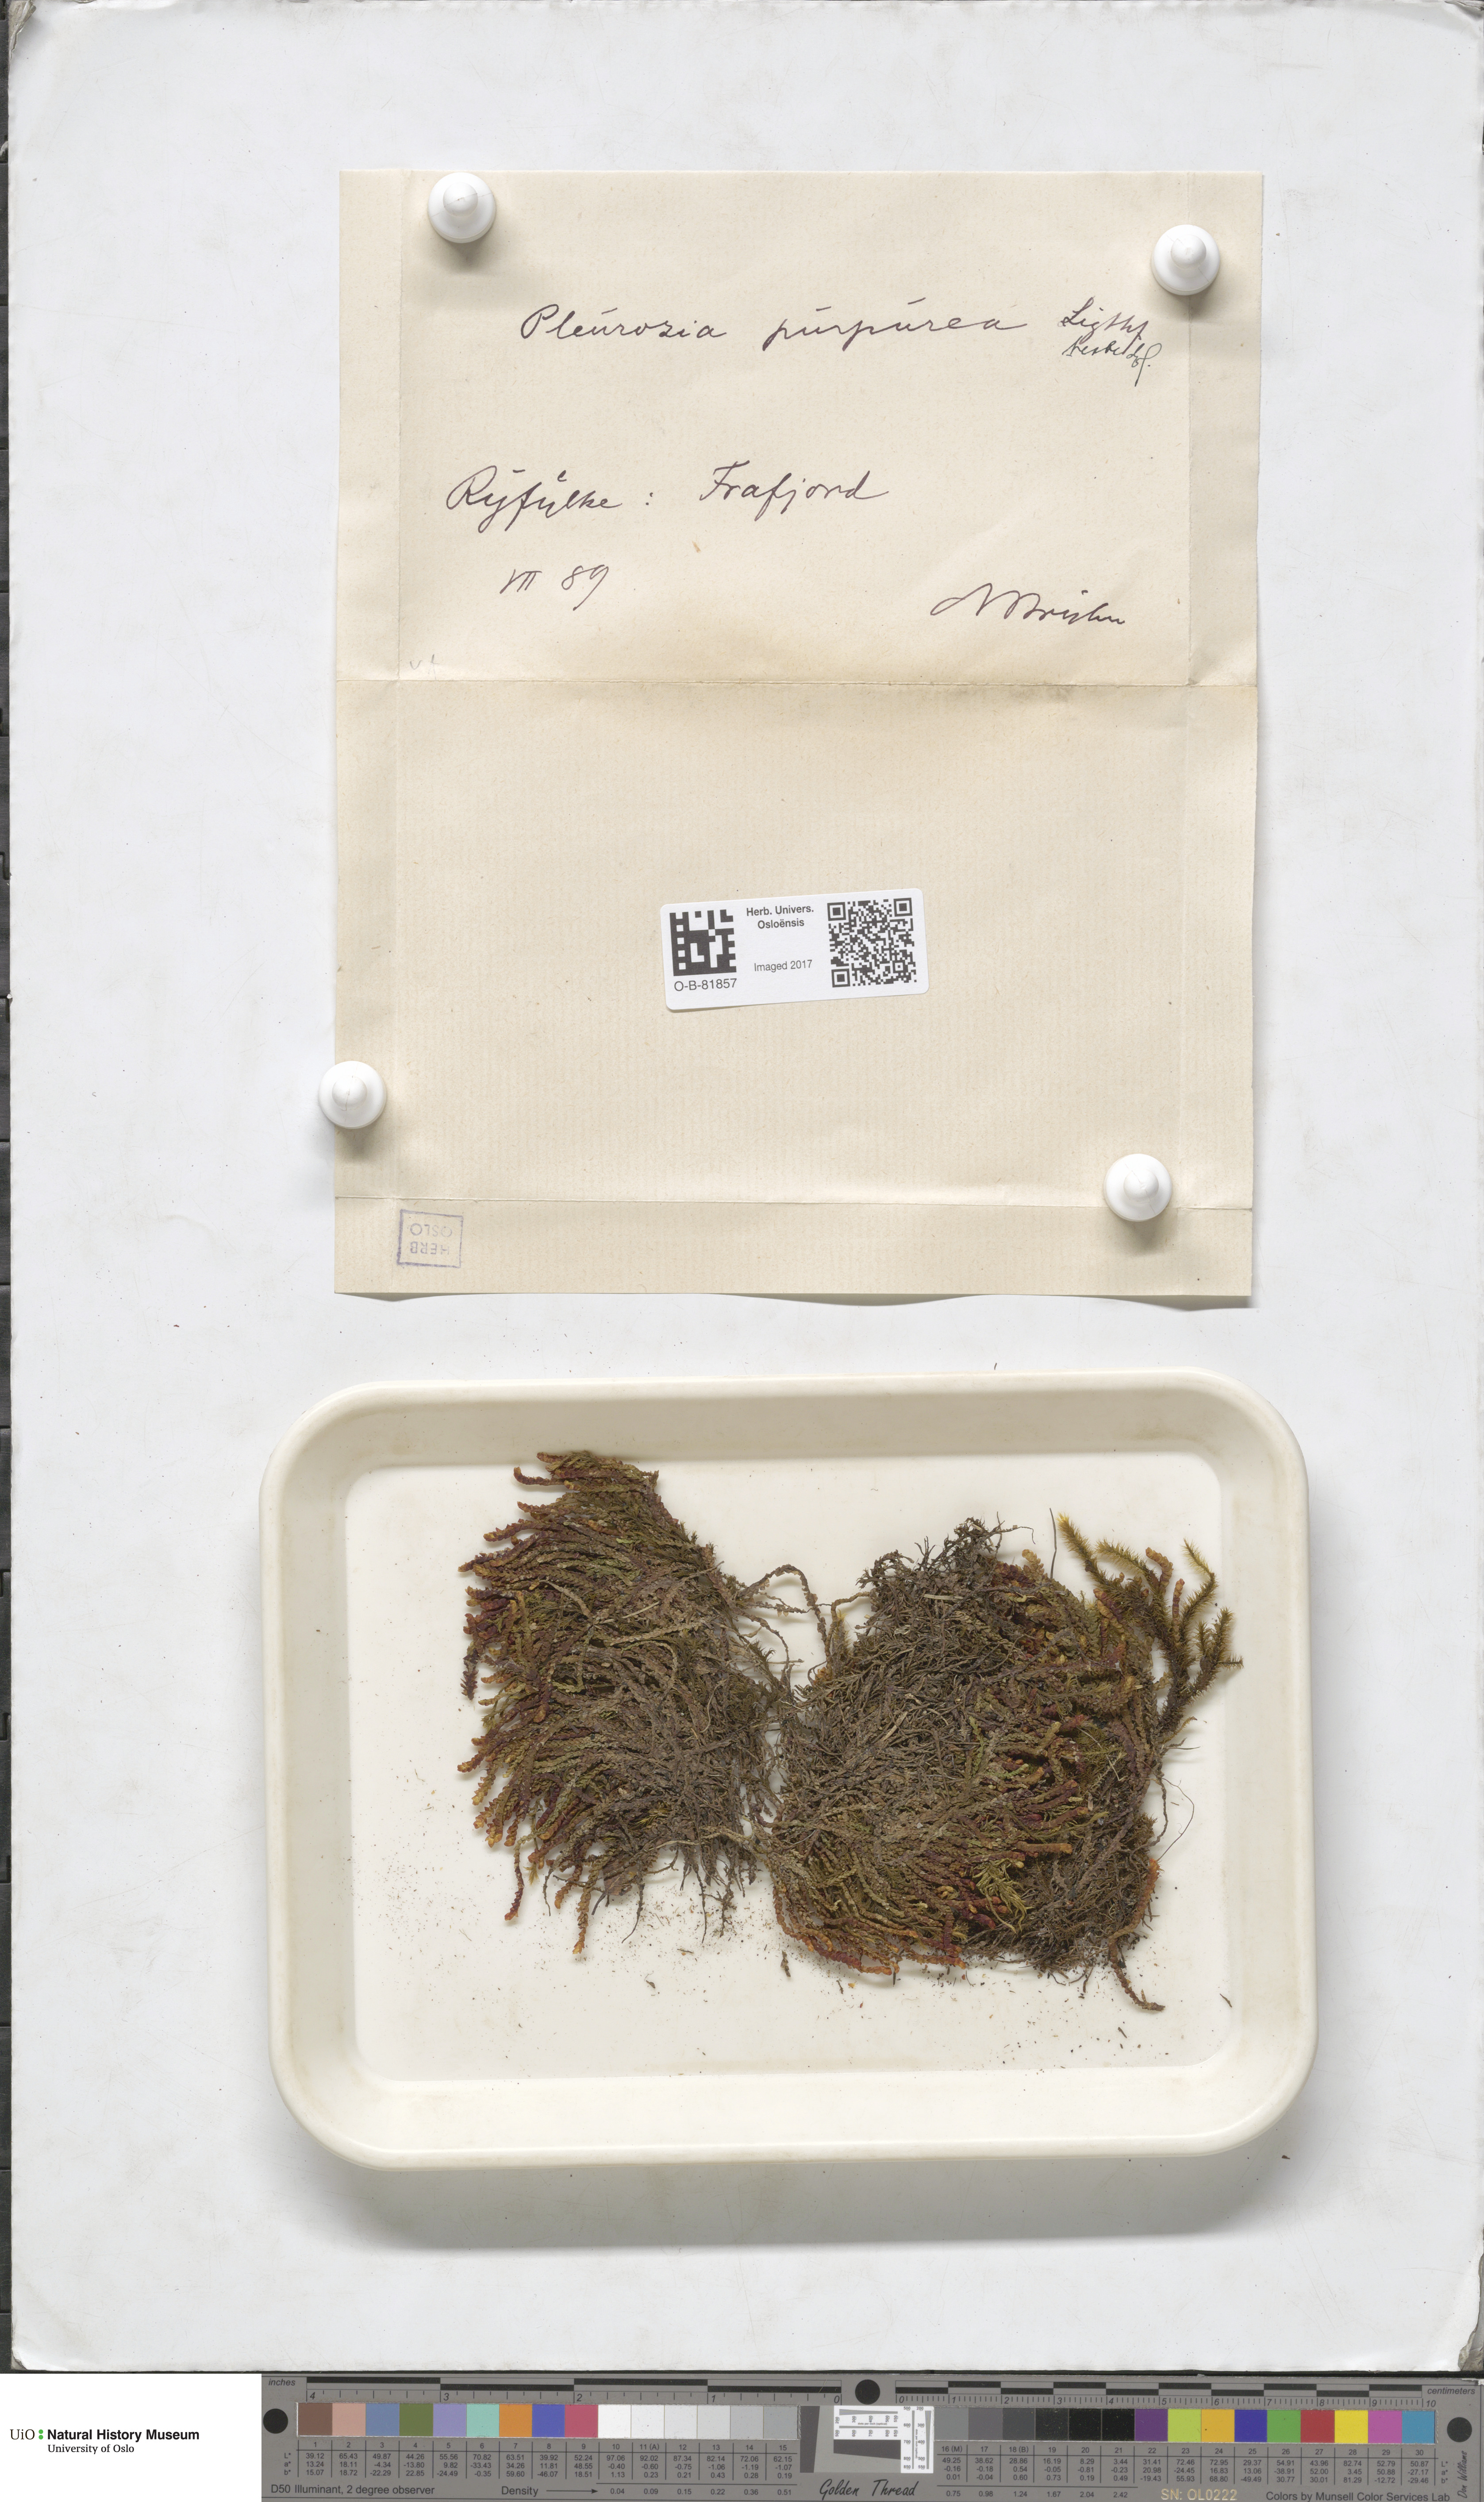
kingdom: Plantae
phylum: Marchantiophyta
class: Jungermanniopsida
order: Pleuroziales
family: Pleuroziaceae
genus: Pleurozia
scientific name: Pleurozia purpurea
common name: Purple spoonwort
